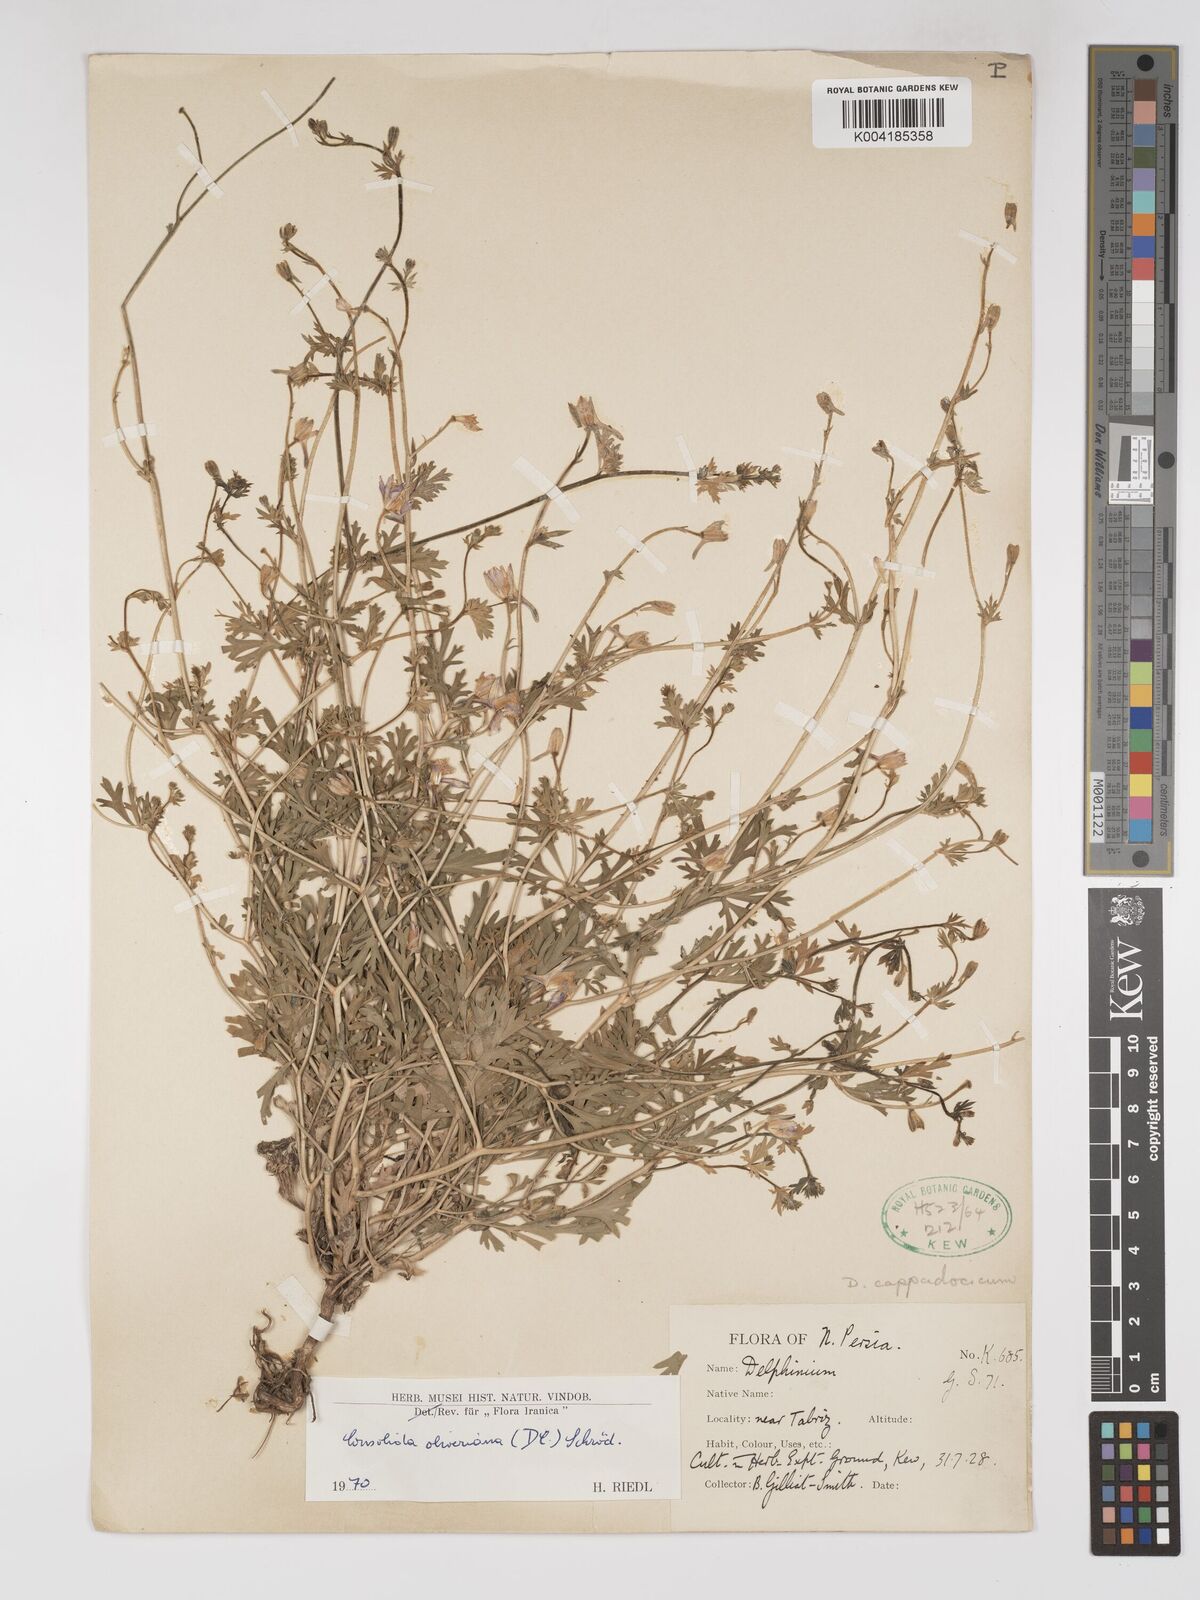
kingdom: Plantae
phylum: Tracheophyta
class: Magnoliopsida
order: Ranunculales
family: Ranunculaceae
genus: Delphinium
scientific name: Delphinium oliverianum
